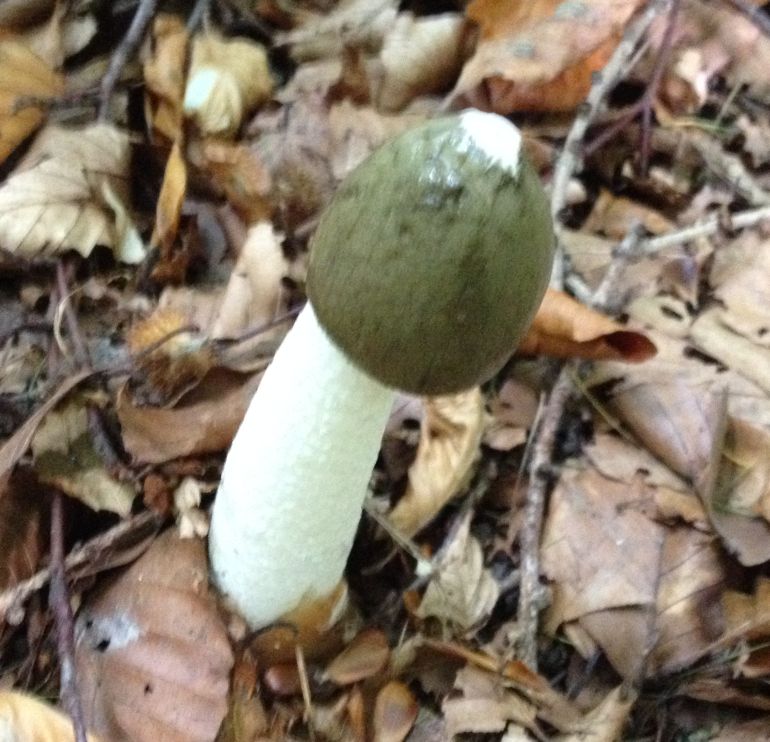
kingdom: Fungi
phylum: Basidiomycota
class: Agaricomycetes
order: Phallales
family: Phallaceae
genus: Phallus
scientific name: Phallus impudicus
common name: almindelig stinksvamp
